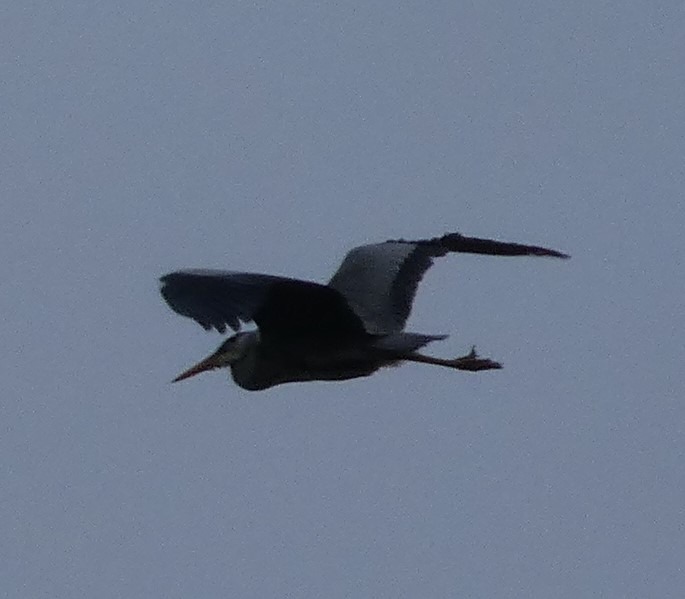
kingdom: Animalia
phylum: Chordata
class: Aves
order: Pelecaniformes
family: Ardeidae
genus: Ardea
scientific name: Ardea cinerea
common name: Fiskehejre
